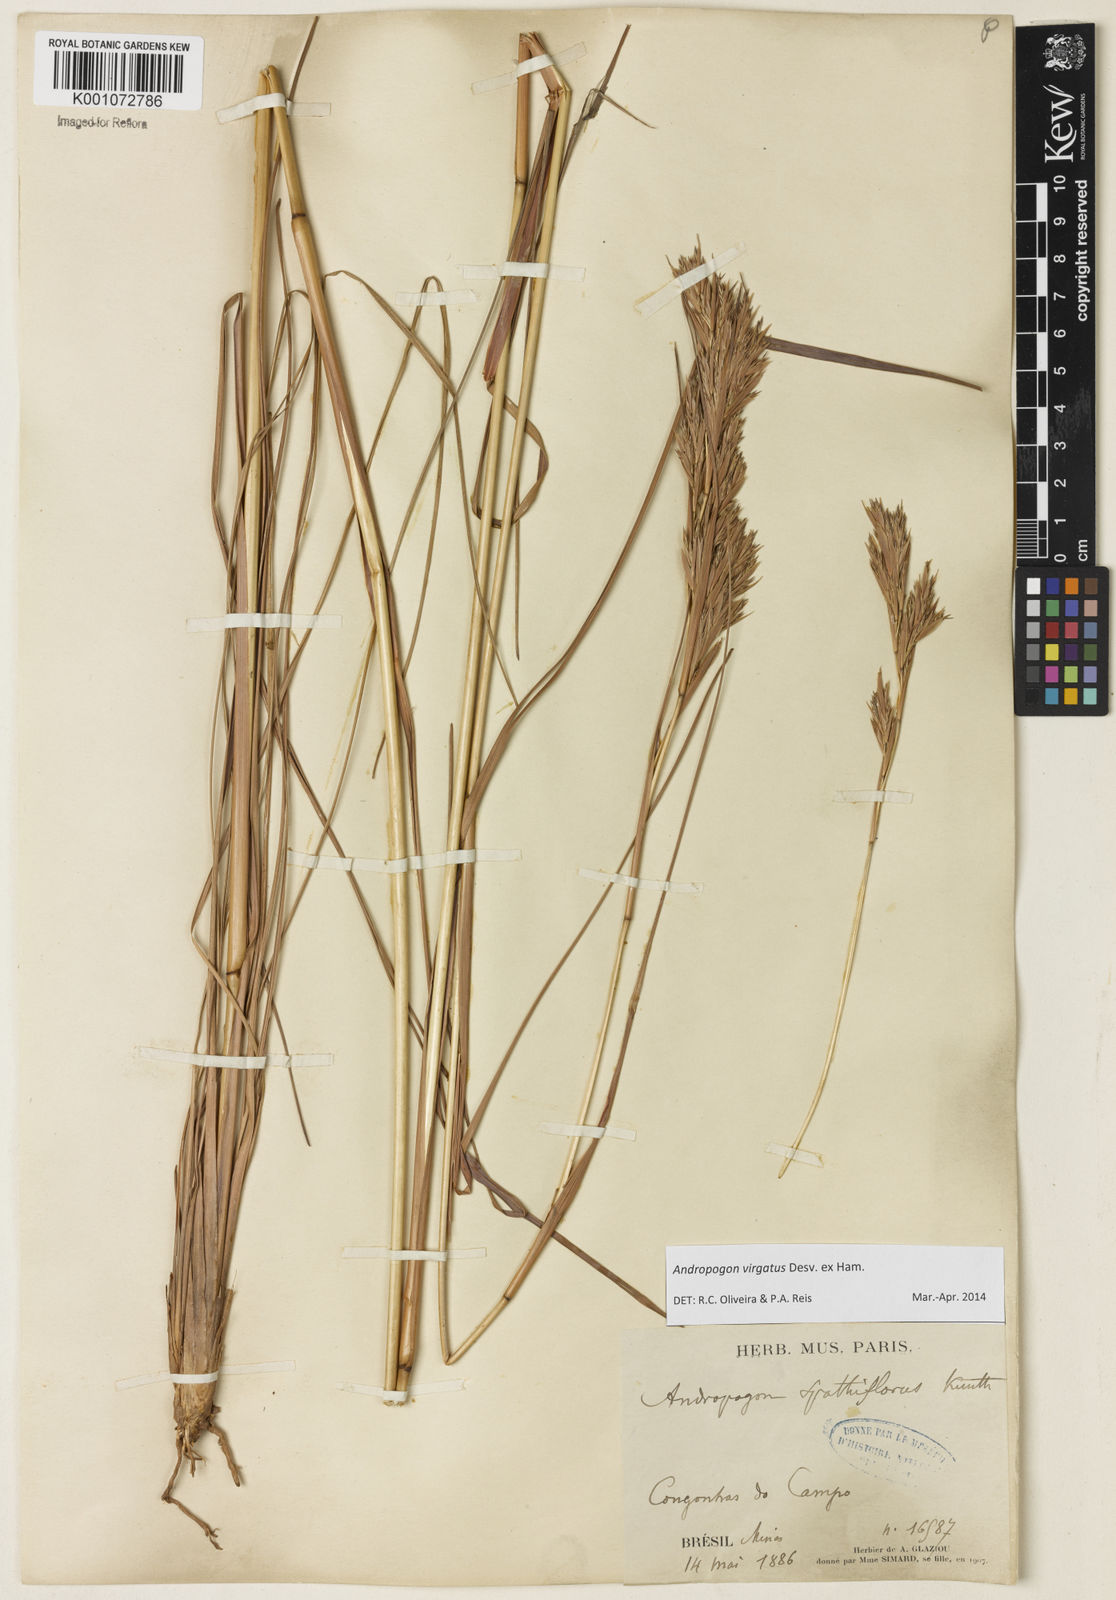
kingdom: Plantae
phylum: Tracheophyta
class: Liliopsida
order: Poales
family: Poaceae
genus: Andropogon
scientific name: Andropogon virgatus
